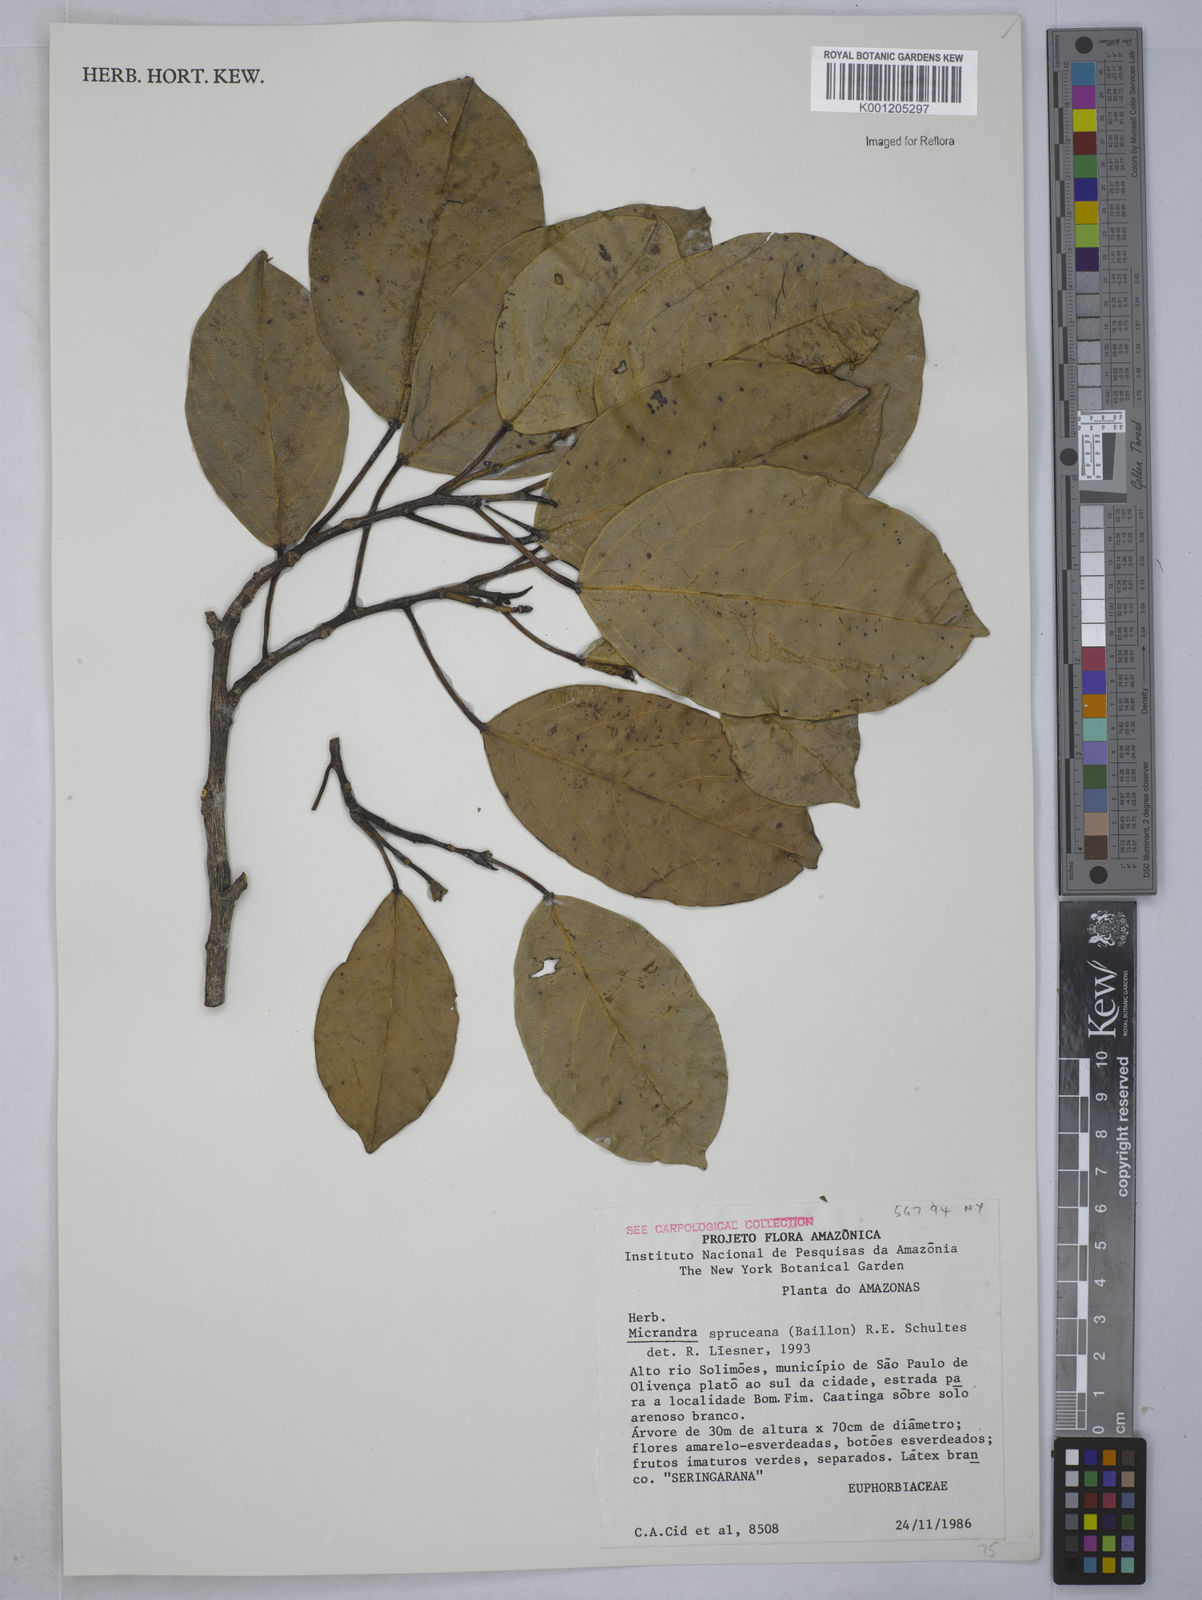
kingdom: Plantae
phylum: Tracheophyta
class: Magnoliopsida
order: Malpighiales
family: Euphorbiaceae
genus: Micrandra
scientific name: Micrandra spruceana
